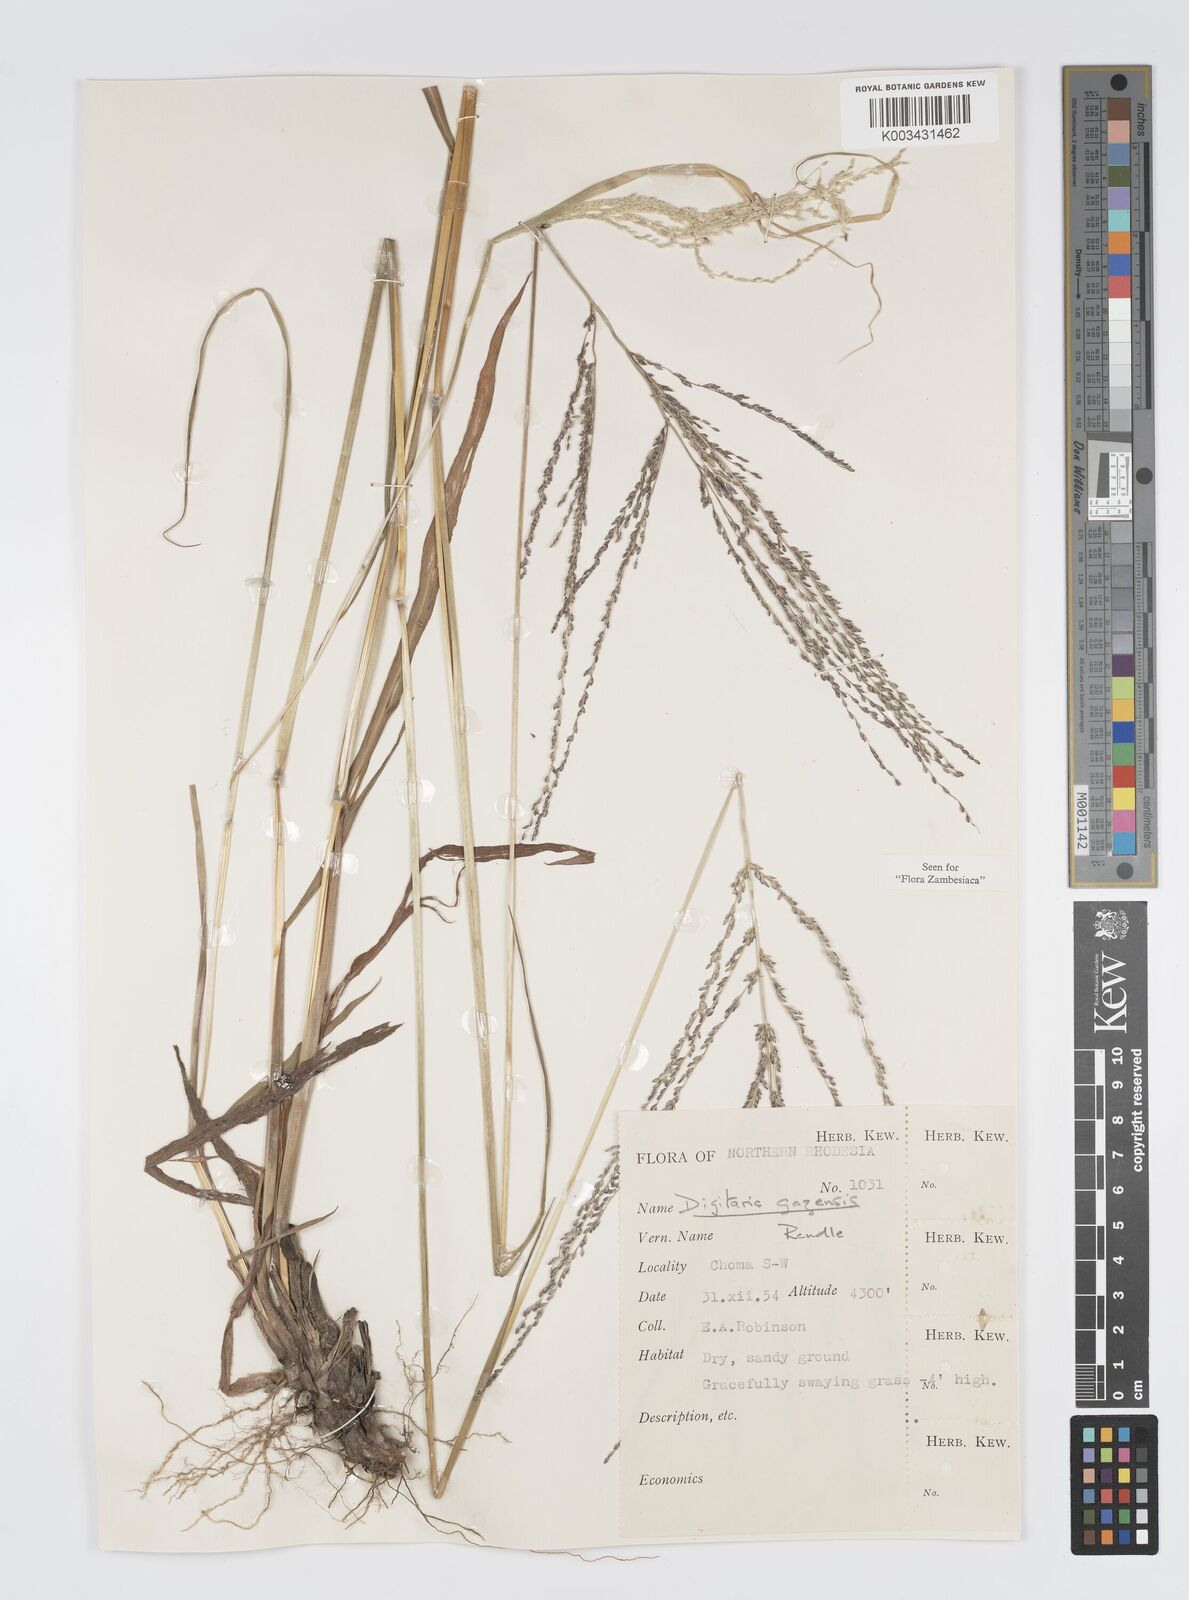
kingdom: Plantae
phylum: Tracheophyta
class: Liliopsida
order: Poales
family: Poaceae
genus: Digitaria
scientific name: Digitaria gazensis
